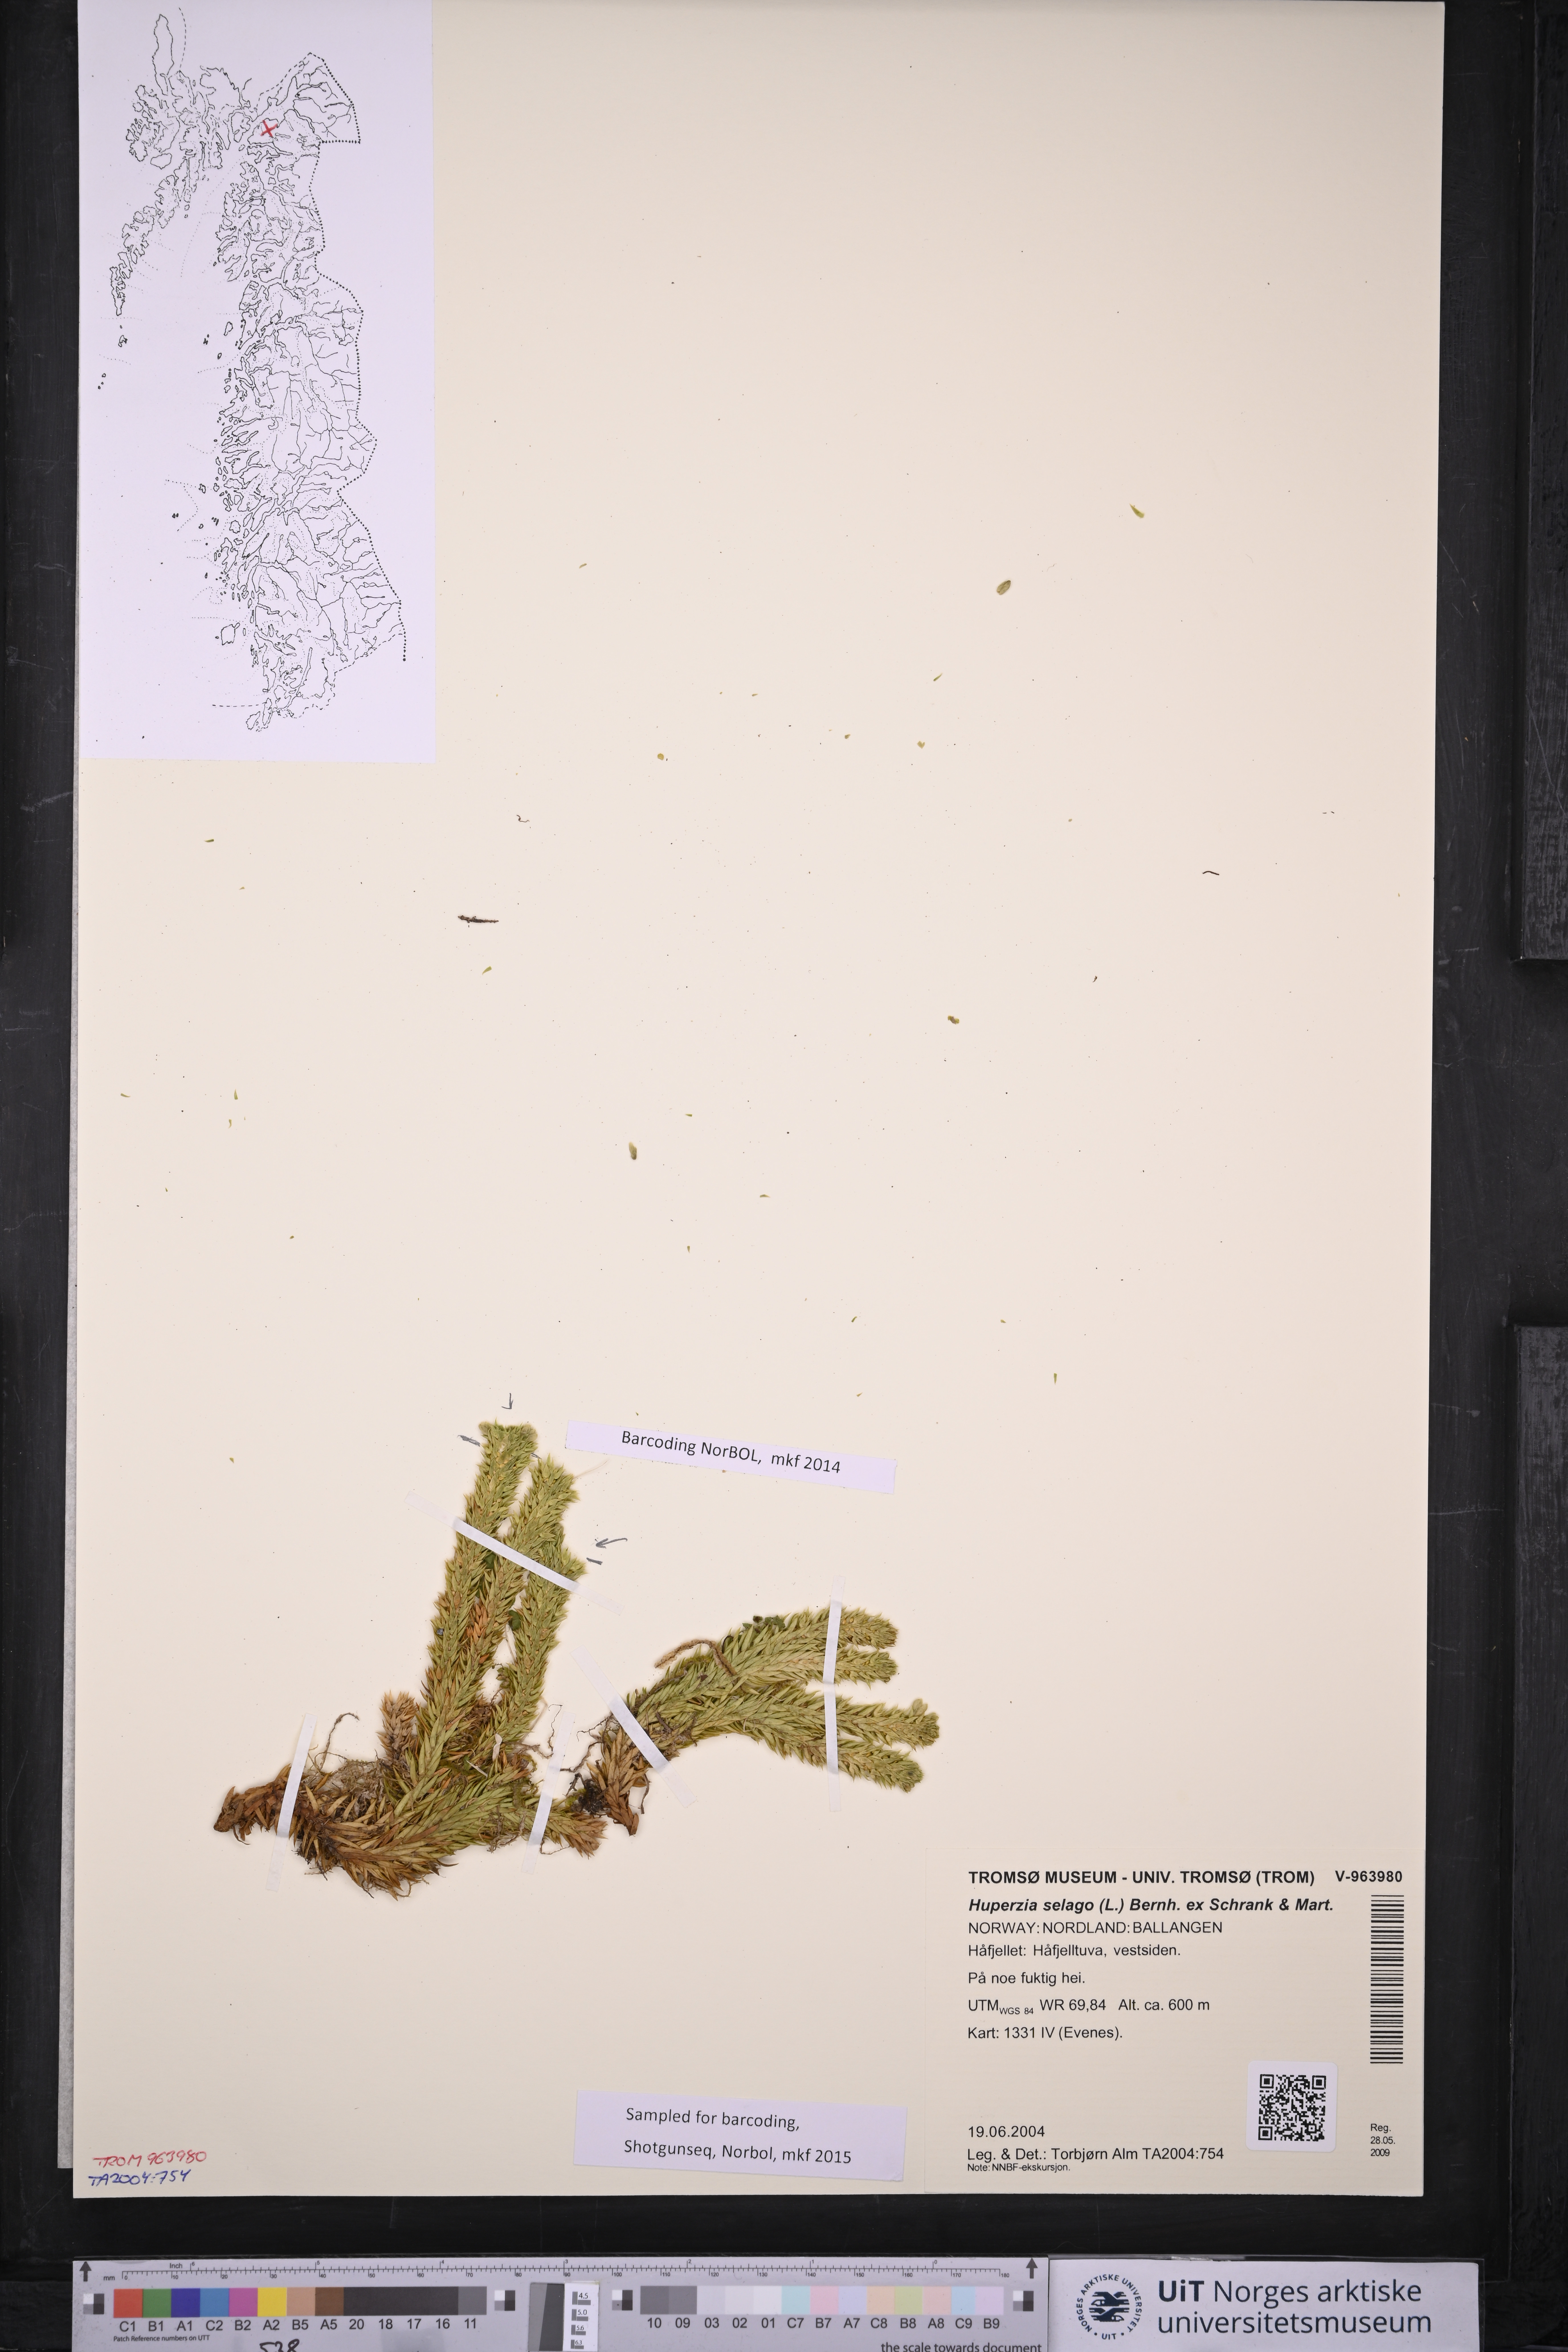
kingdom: Plantae
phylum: Tracheophyta
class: Lycopodiopsida
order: Lycopodiales
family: Lycopodiaceae
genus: Huperzia
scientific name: Huperzia selago
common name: Northern firmoss
